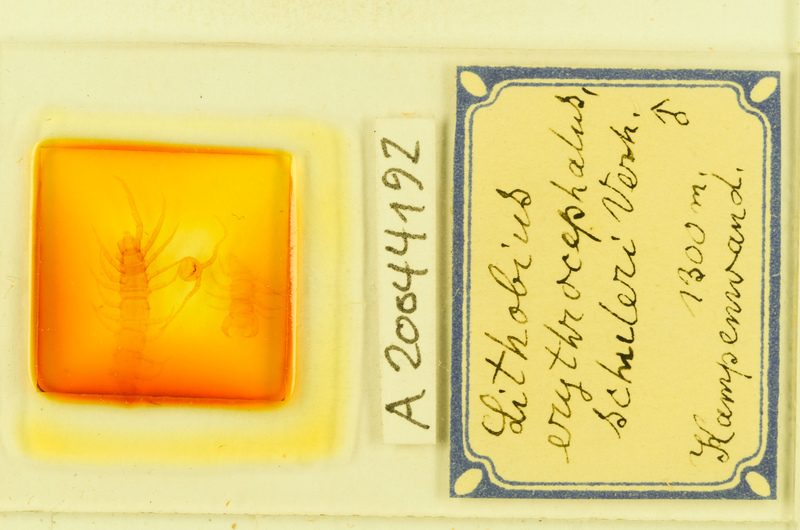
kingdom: Animalia
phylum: Arthropoda
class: Chilopoda
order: Lithobiomorpha
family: Lithobiidae
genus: Lithobius
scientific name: Lithobius erythrocephalus
